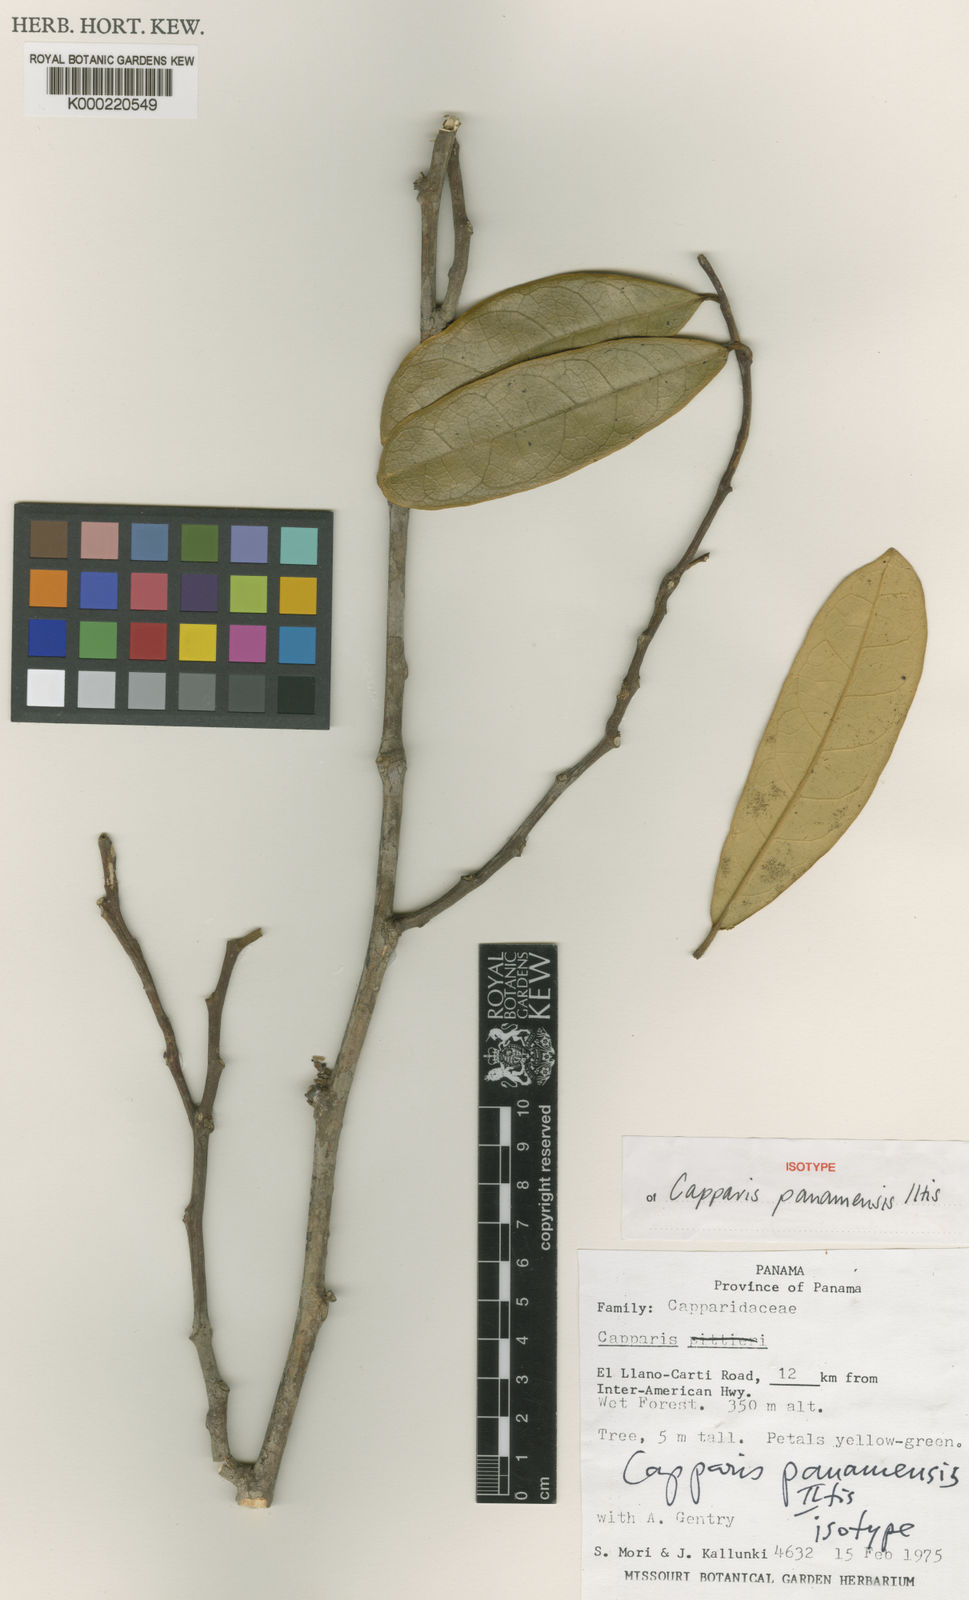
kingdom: Plantae
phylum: Tracheophyta
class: Magnoliopsida
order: Brassicales
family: Capparaceae
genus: Preslianthus
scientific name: Preslianthus panamensis
